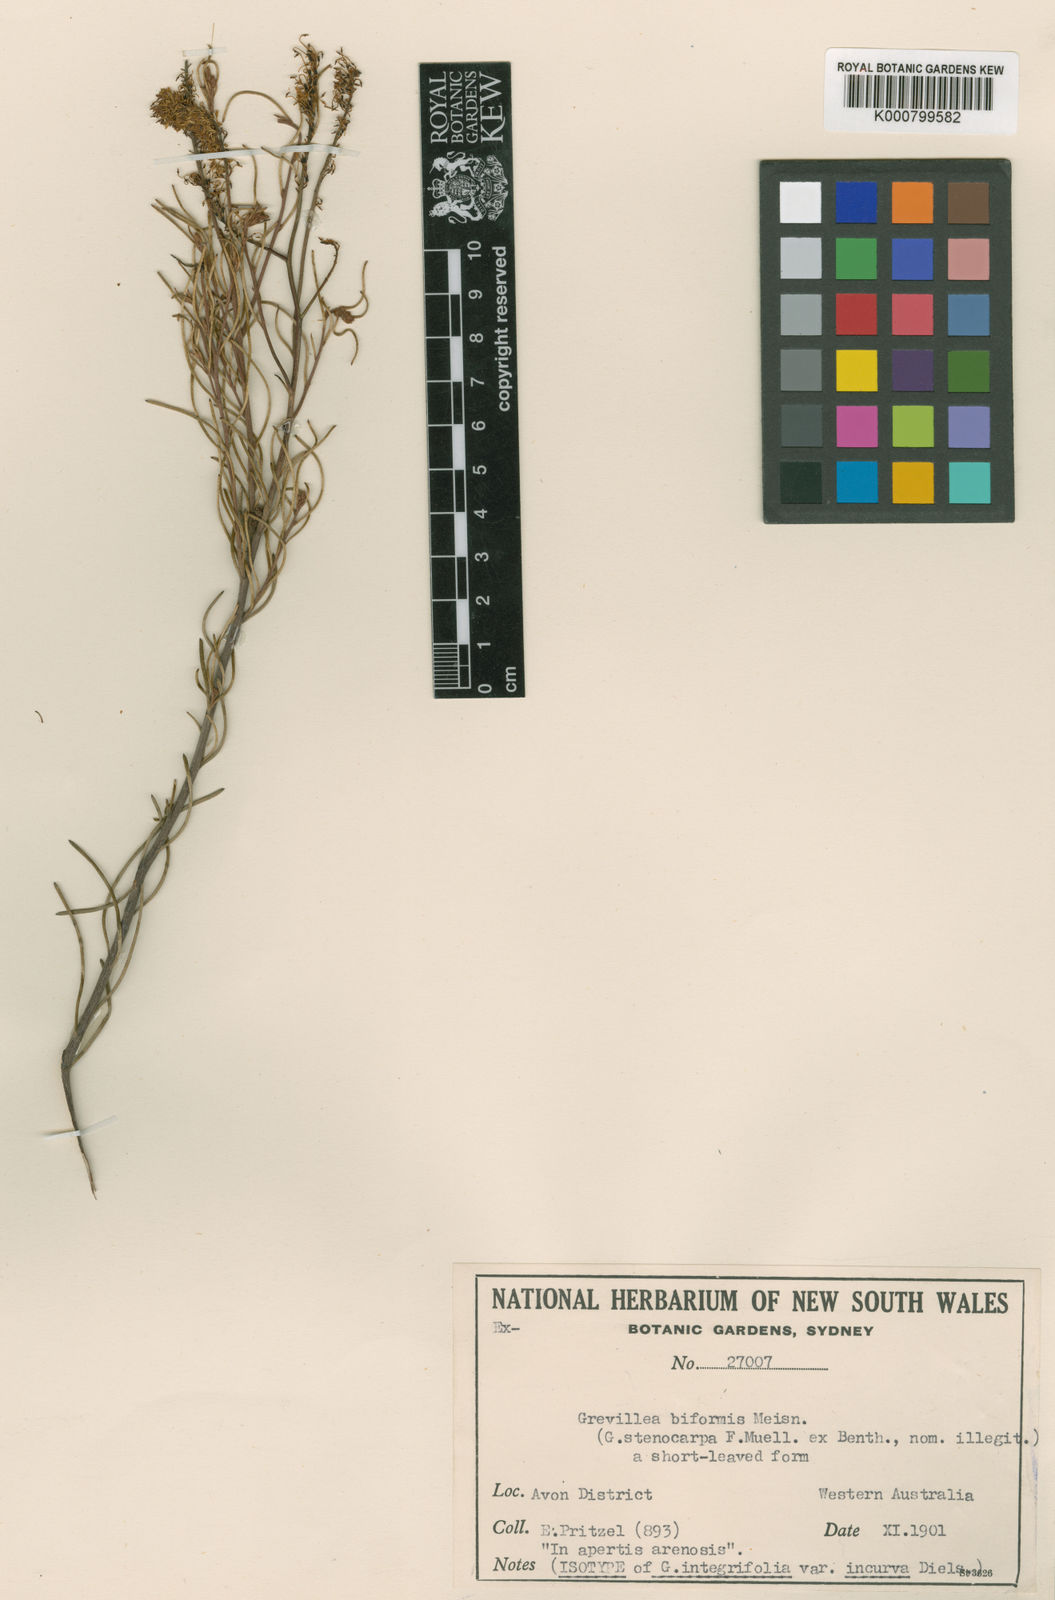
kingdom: Plantae
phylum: Tracheophyta
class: Magnoliopsida
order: Proteales
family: Proteaceae
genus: Grevillea
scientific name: Grevillea biformis
